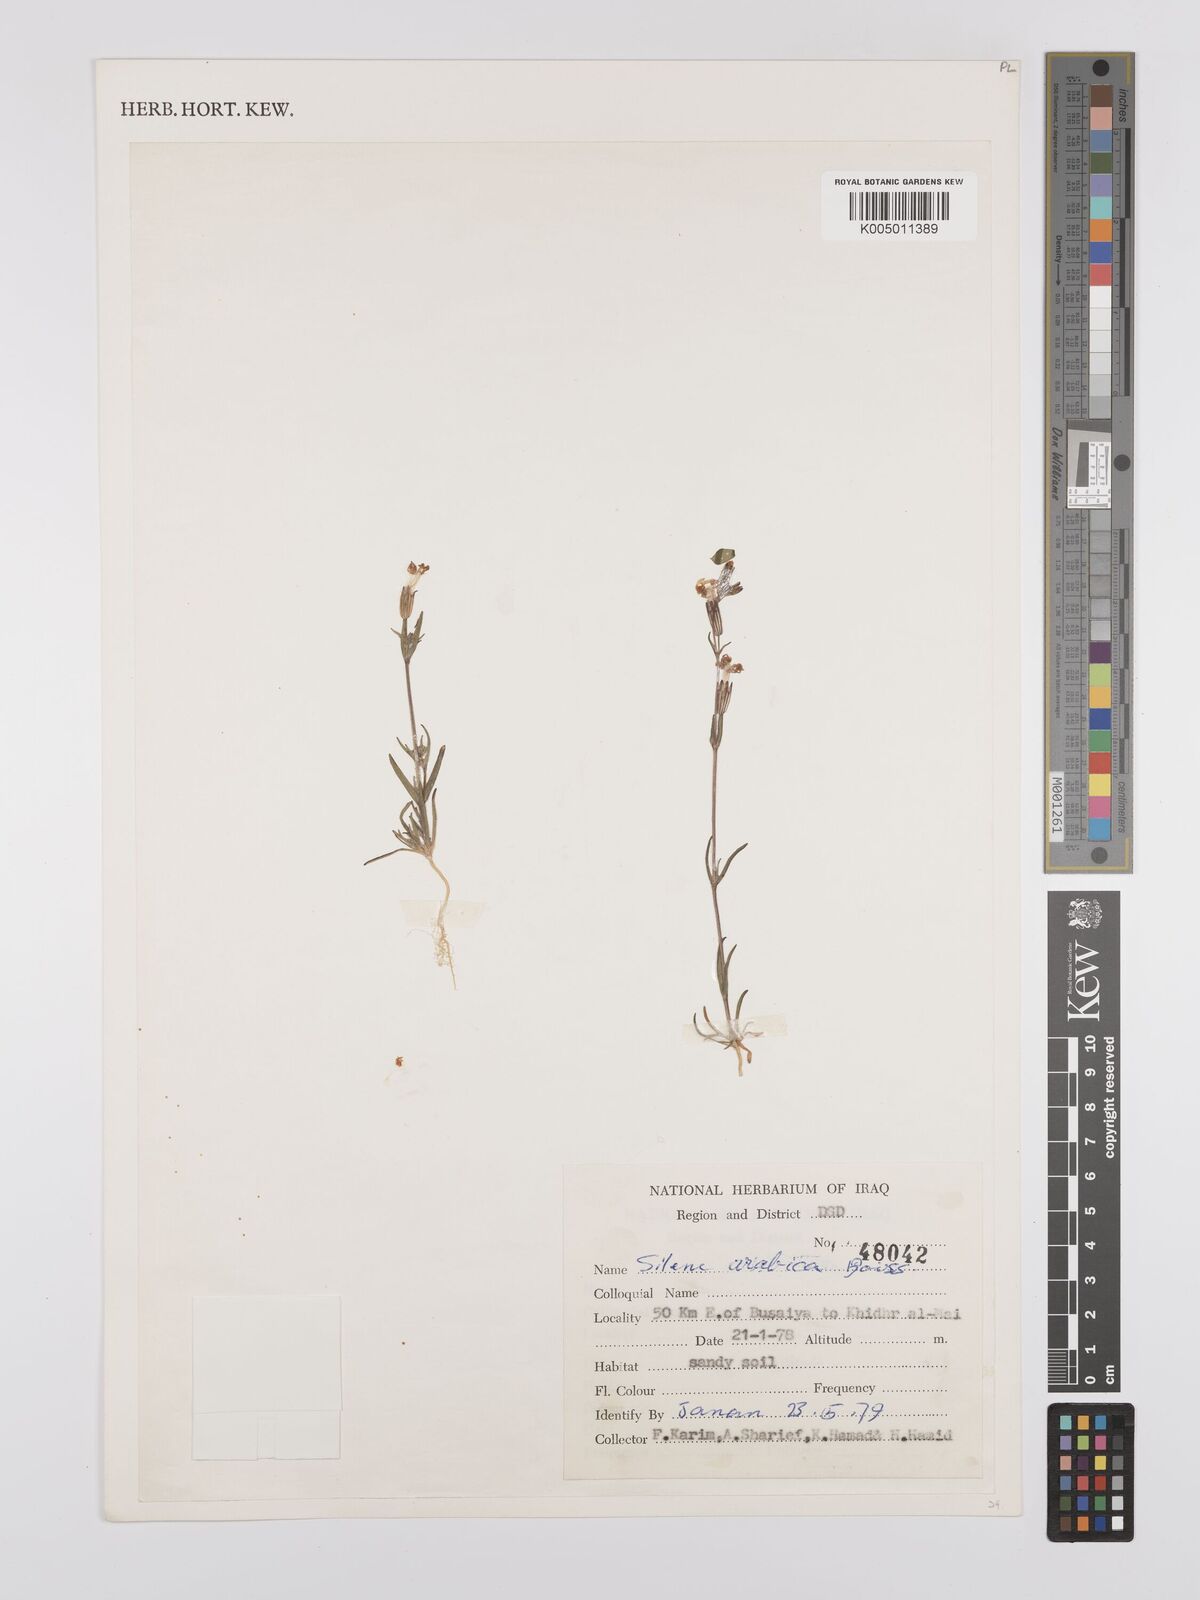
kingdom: Plantae
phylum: Tracheophyta
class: Magnoliopsida
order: Caryophyllales
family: Caryophyllaceae
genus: Silene
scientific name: Silene arabica
